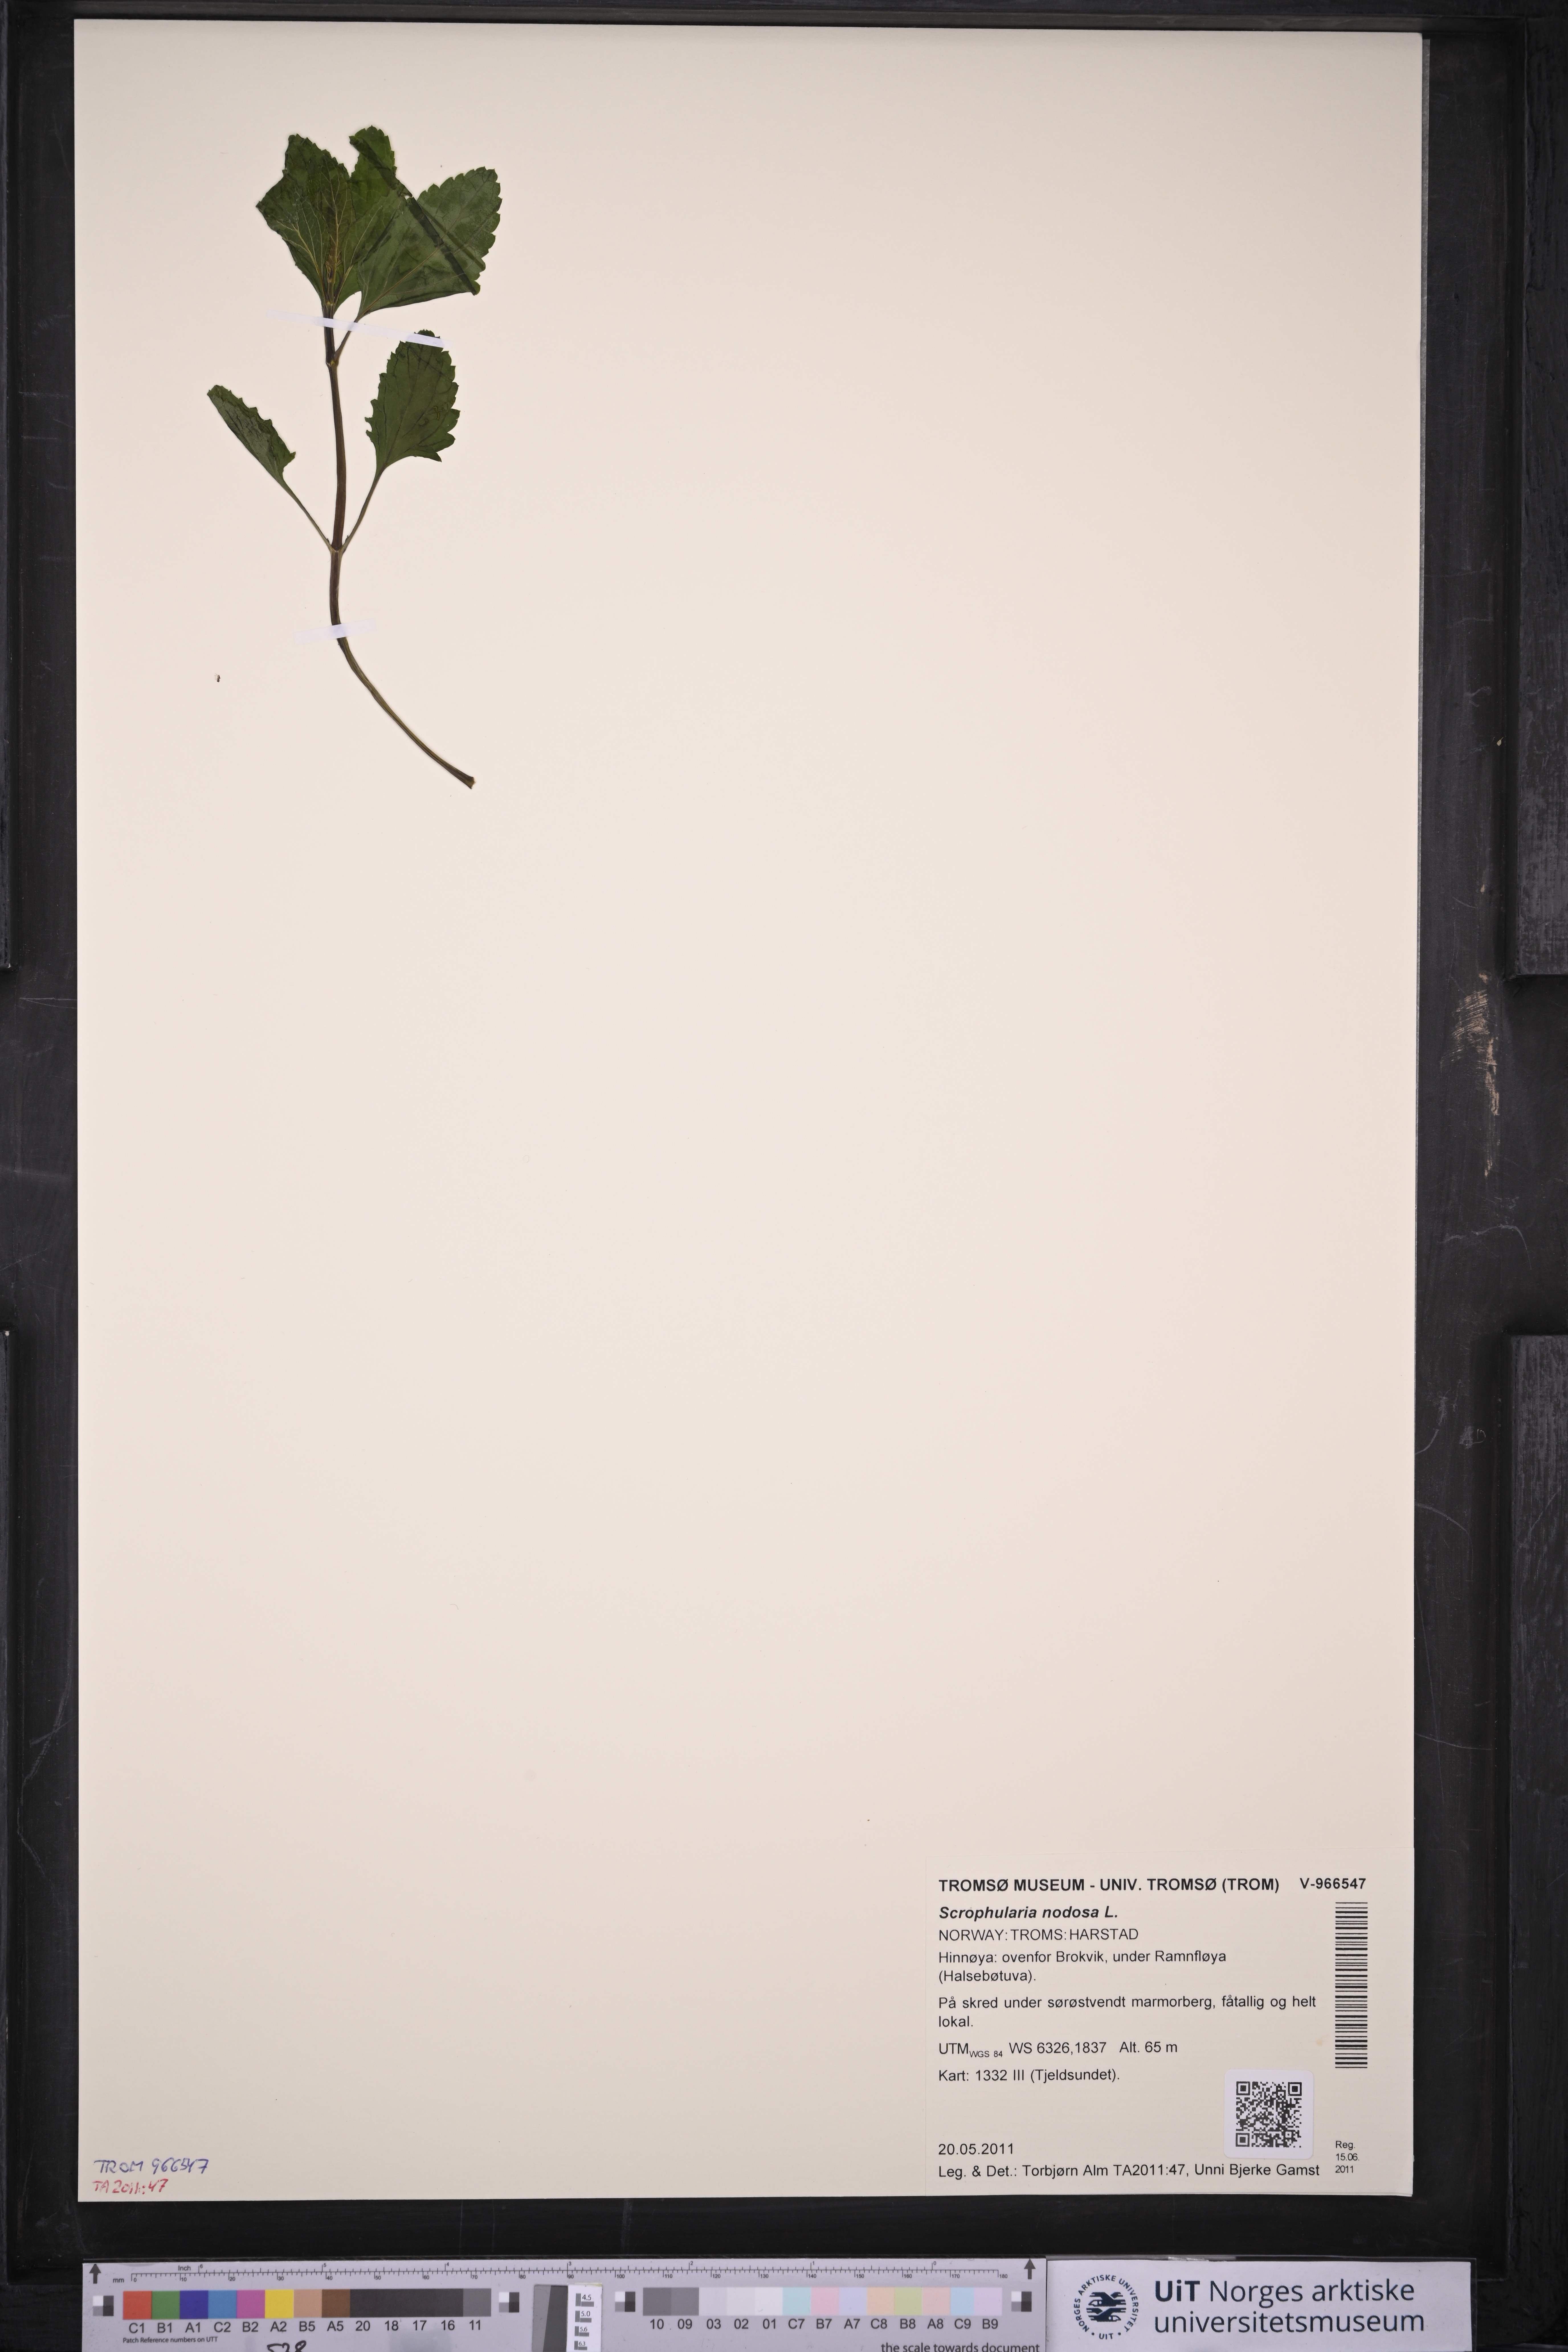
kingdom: Plantae
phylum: Tracheophyta
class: Magnoliopsida
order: Lamiales
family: Scrophulariaceae
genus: Scrophularia
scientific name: Scrophularia nodosa
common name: Common figwort
